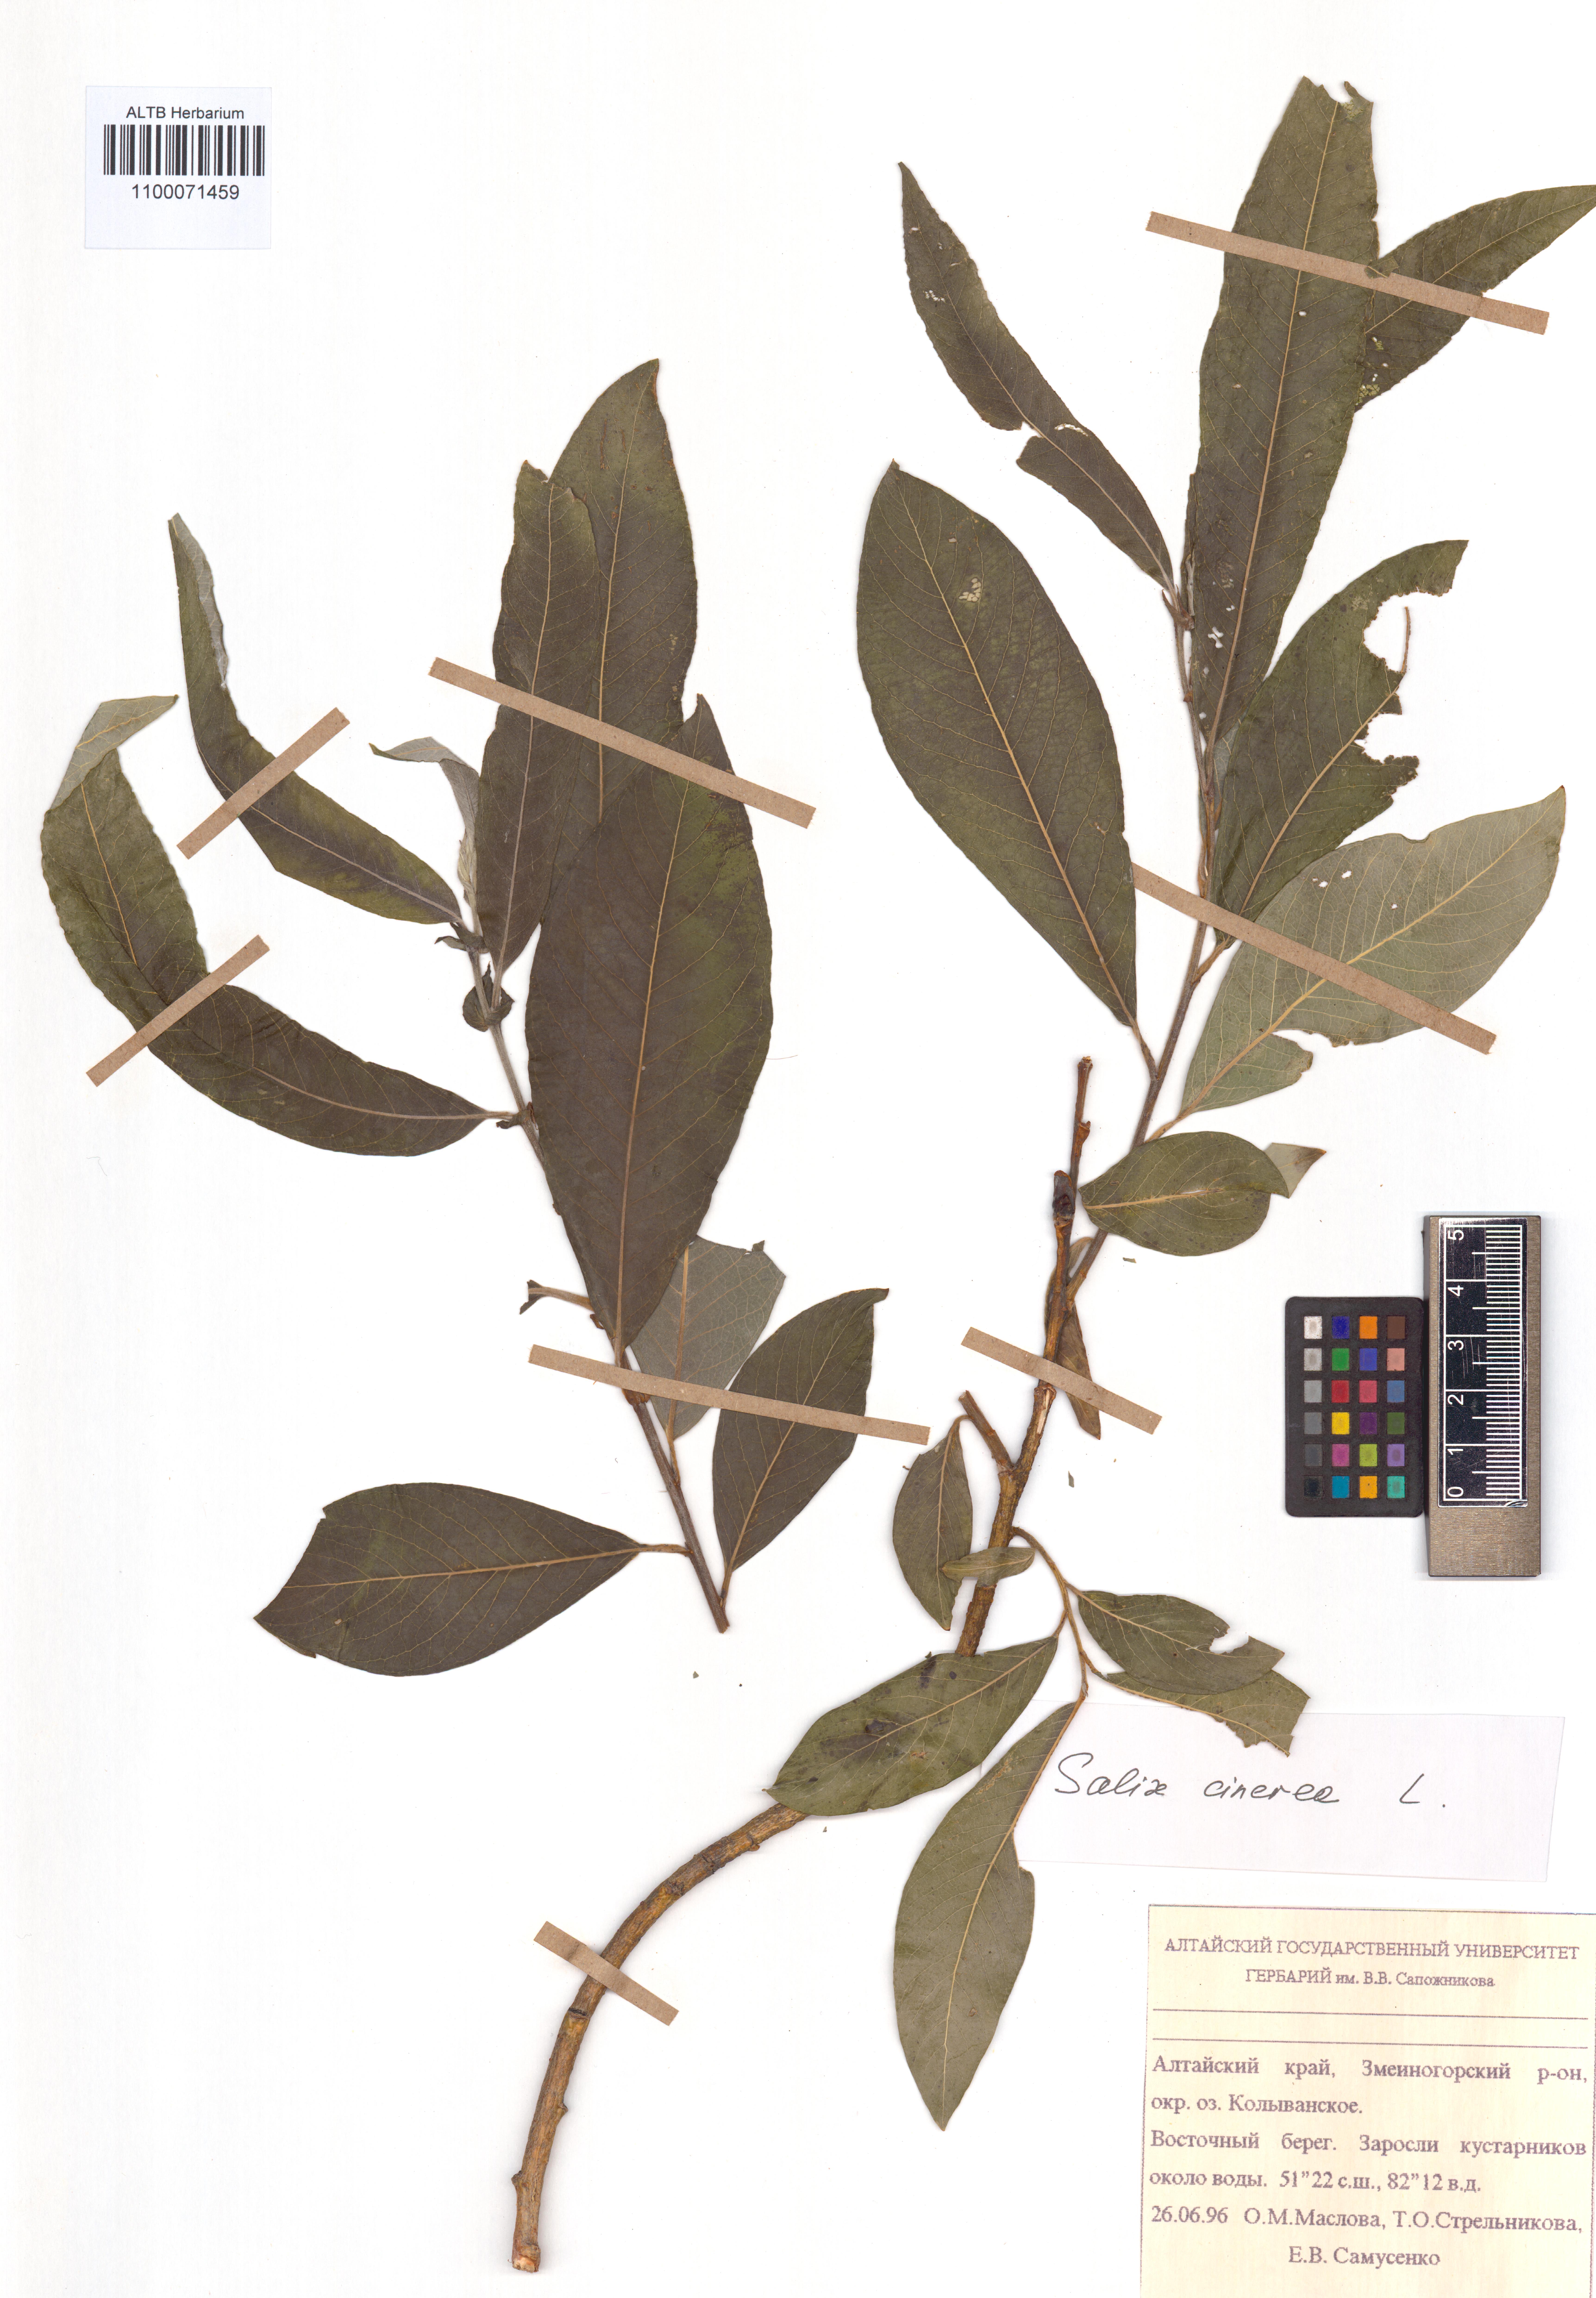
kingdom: Plantae
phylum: Tracheophyta
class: Magnoliopsida
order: Malpighiales
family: Salicaceae
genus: Salix
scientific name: Salix cinerea
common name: Common sallow
